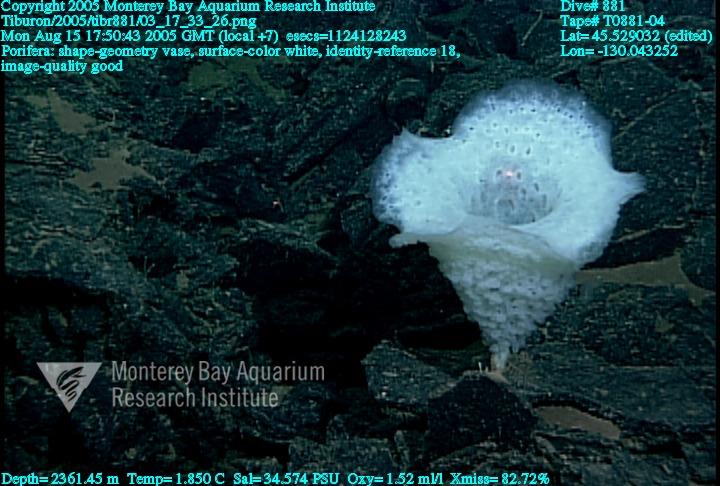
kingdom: Animalia
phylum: Porifera
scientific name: Porifera
